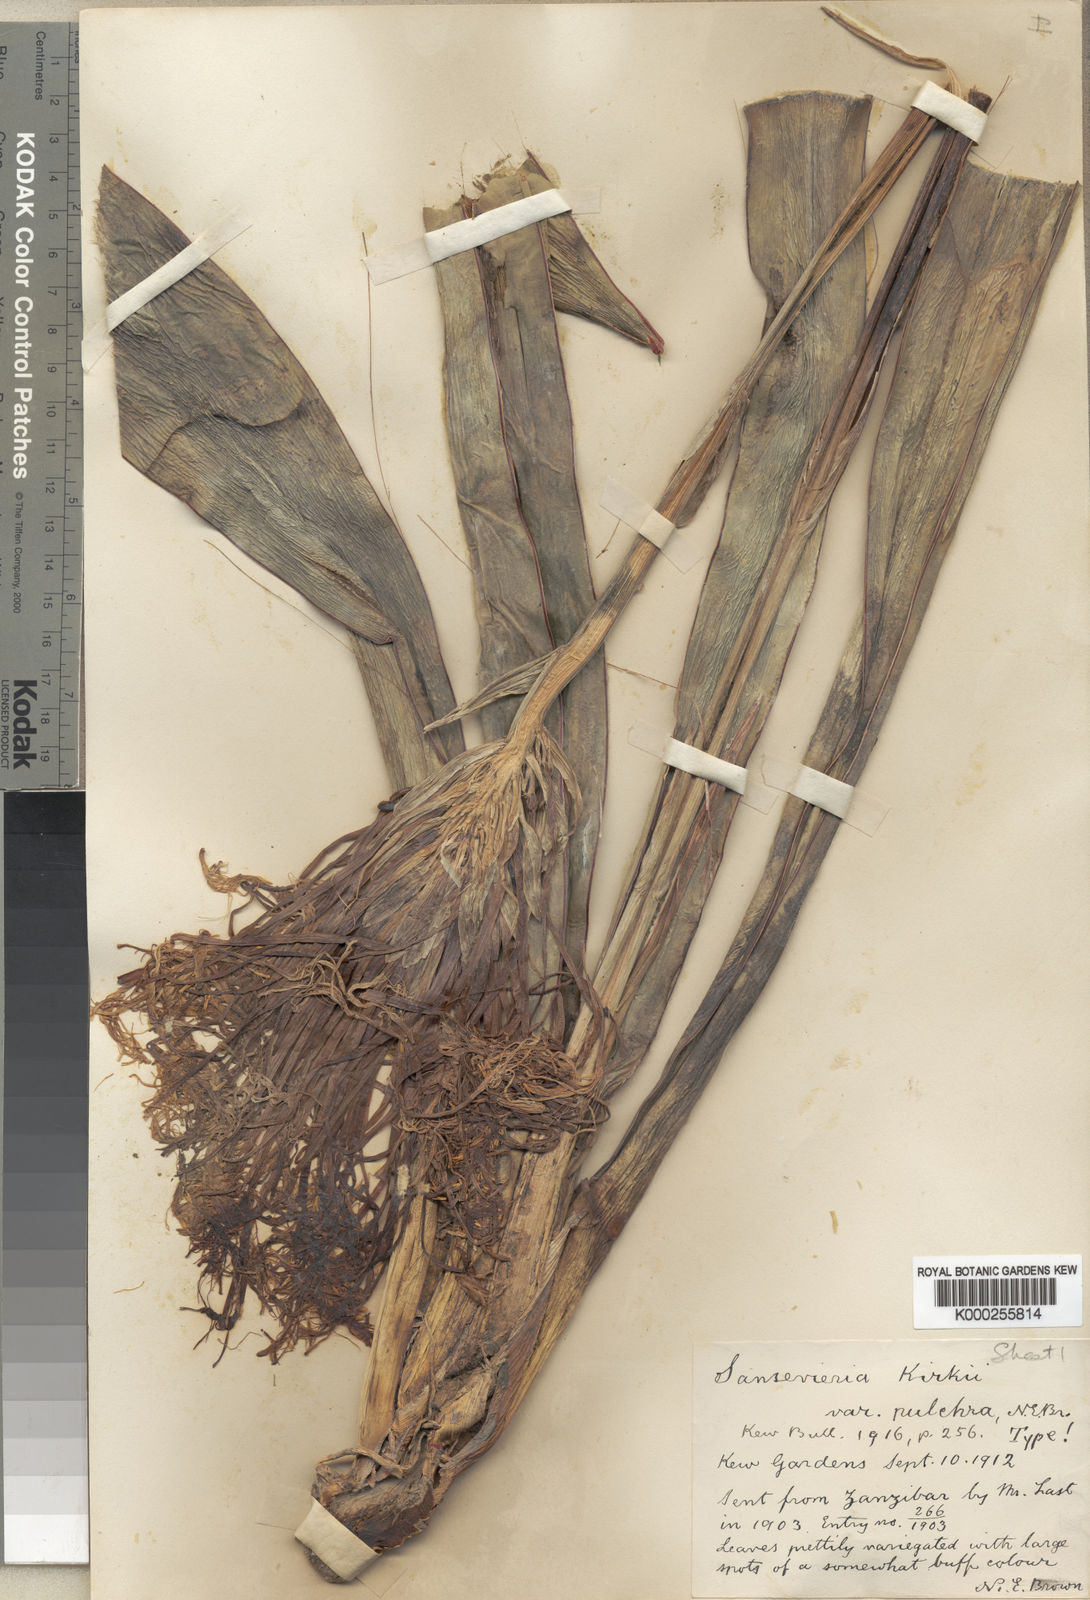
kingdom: Plantae
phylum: Tracheophyta
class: Liliopsida
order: Asparagales
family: Asparagaceae
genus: Dracaena
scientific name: Dracaena pethera
